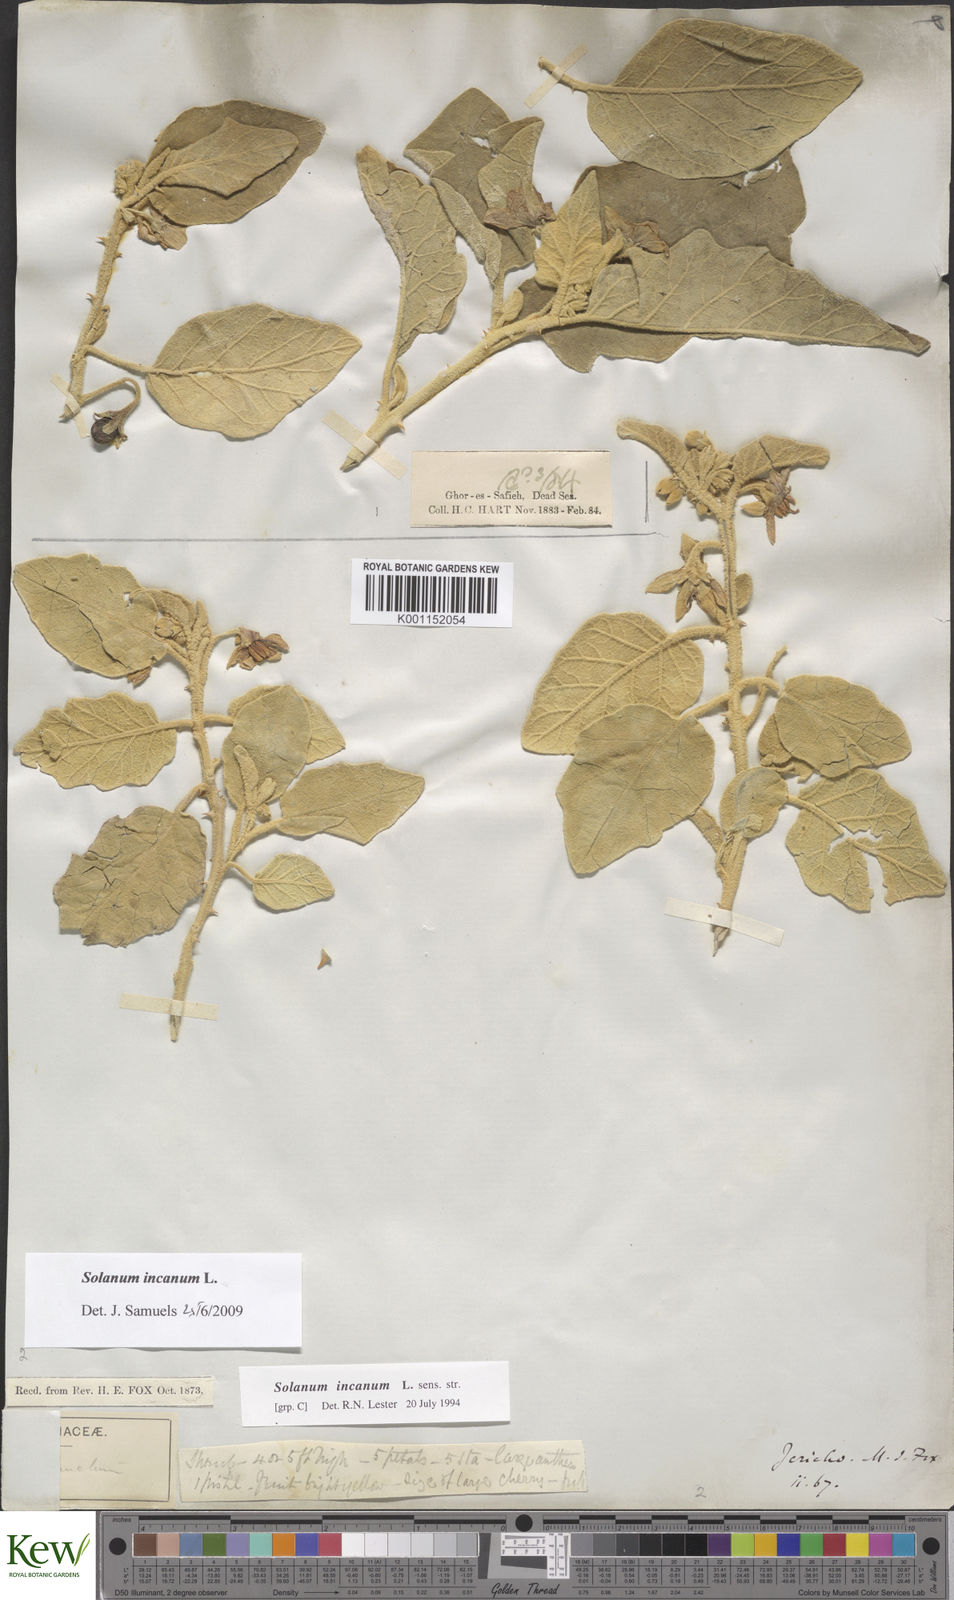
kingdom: Plantae
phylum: Tracheophyta
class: Magnoliopsida
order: Solanales
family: Solanaceae
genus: Solanum
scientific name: Solanum incanum
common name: Bitter apple
